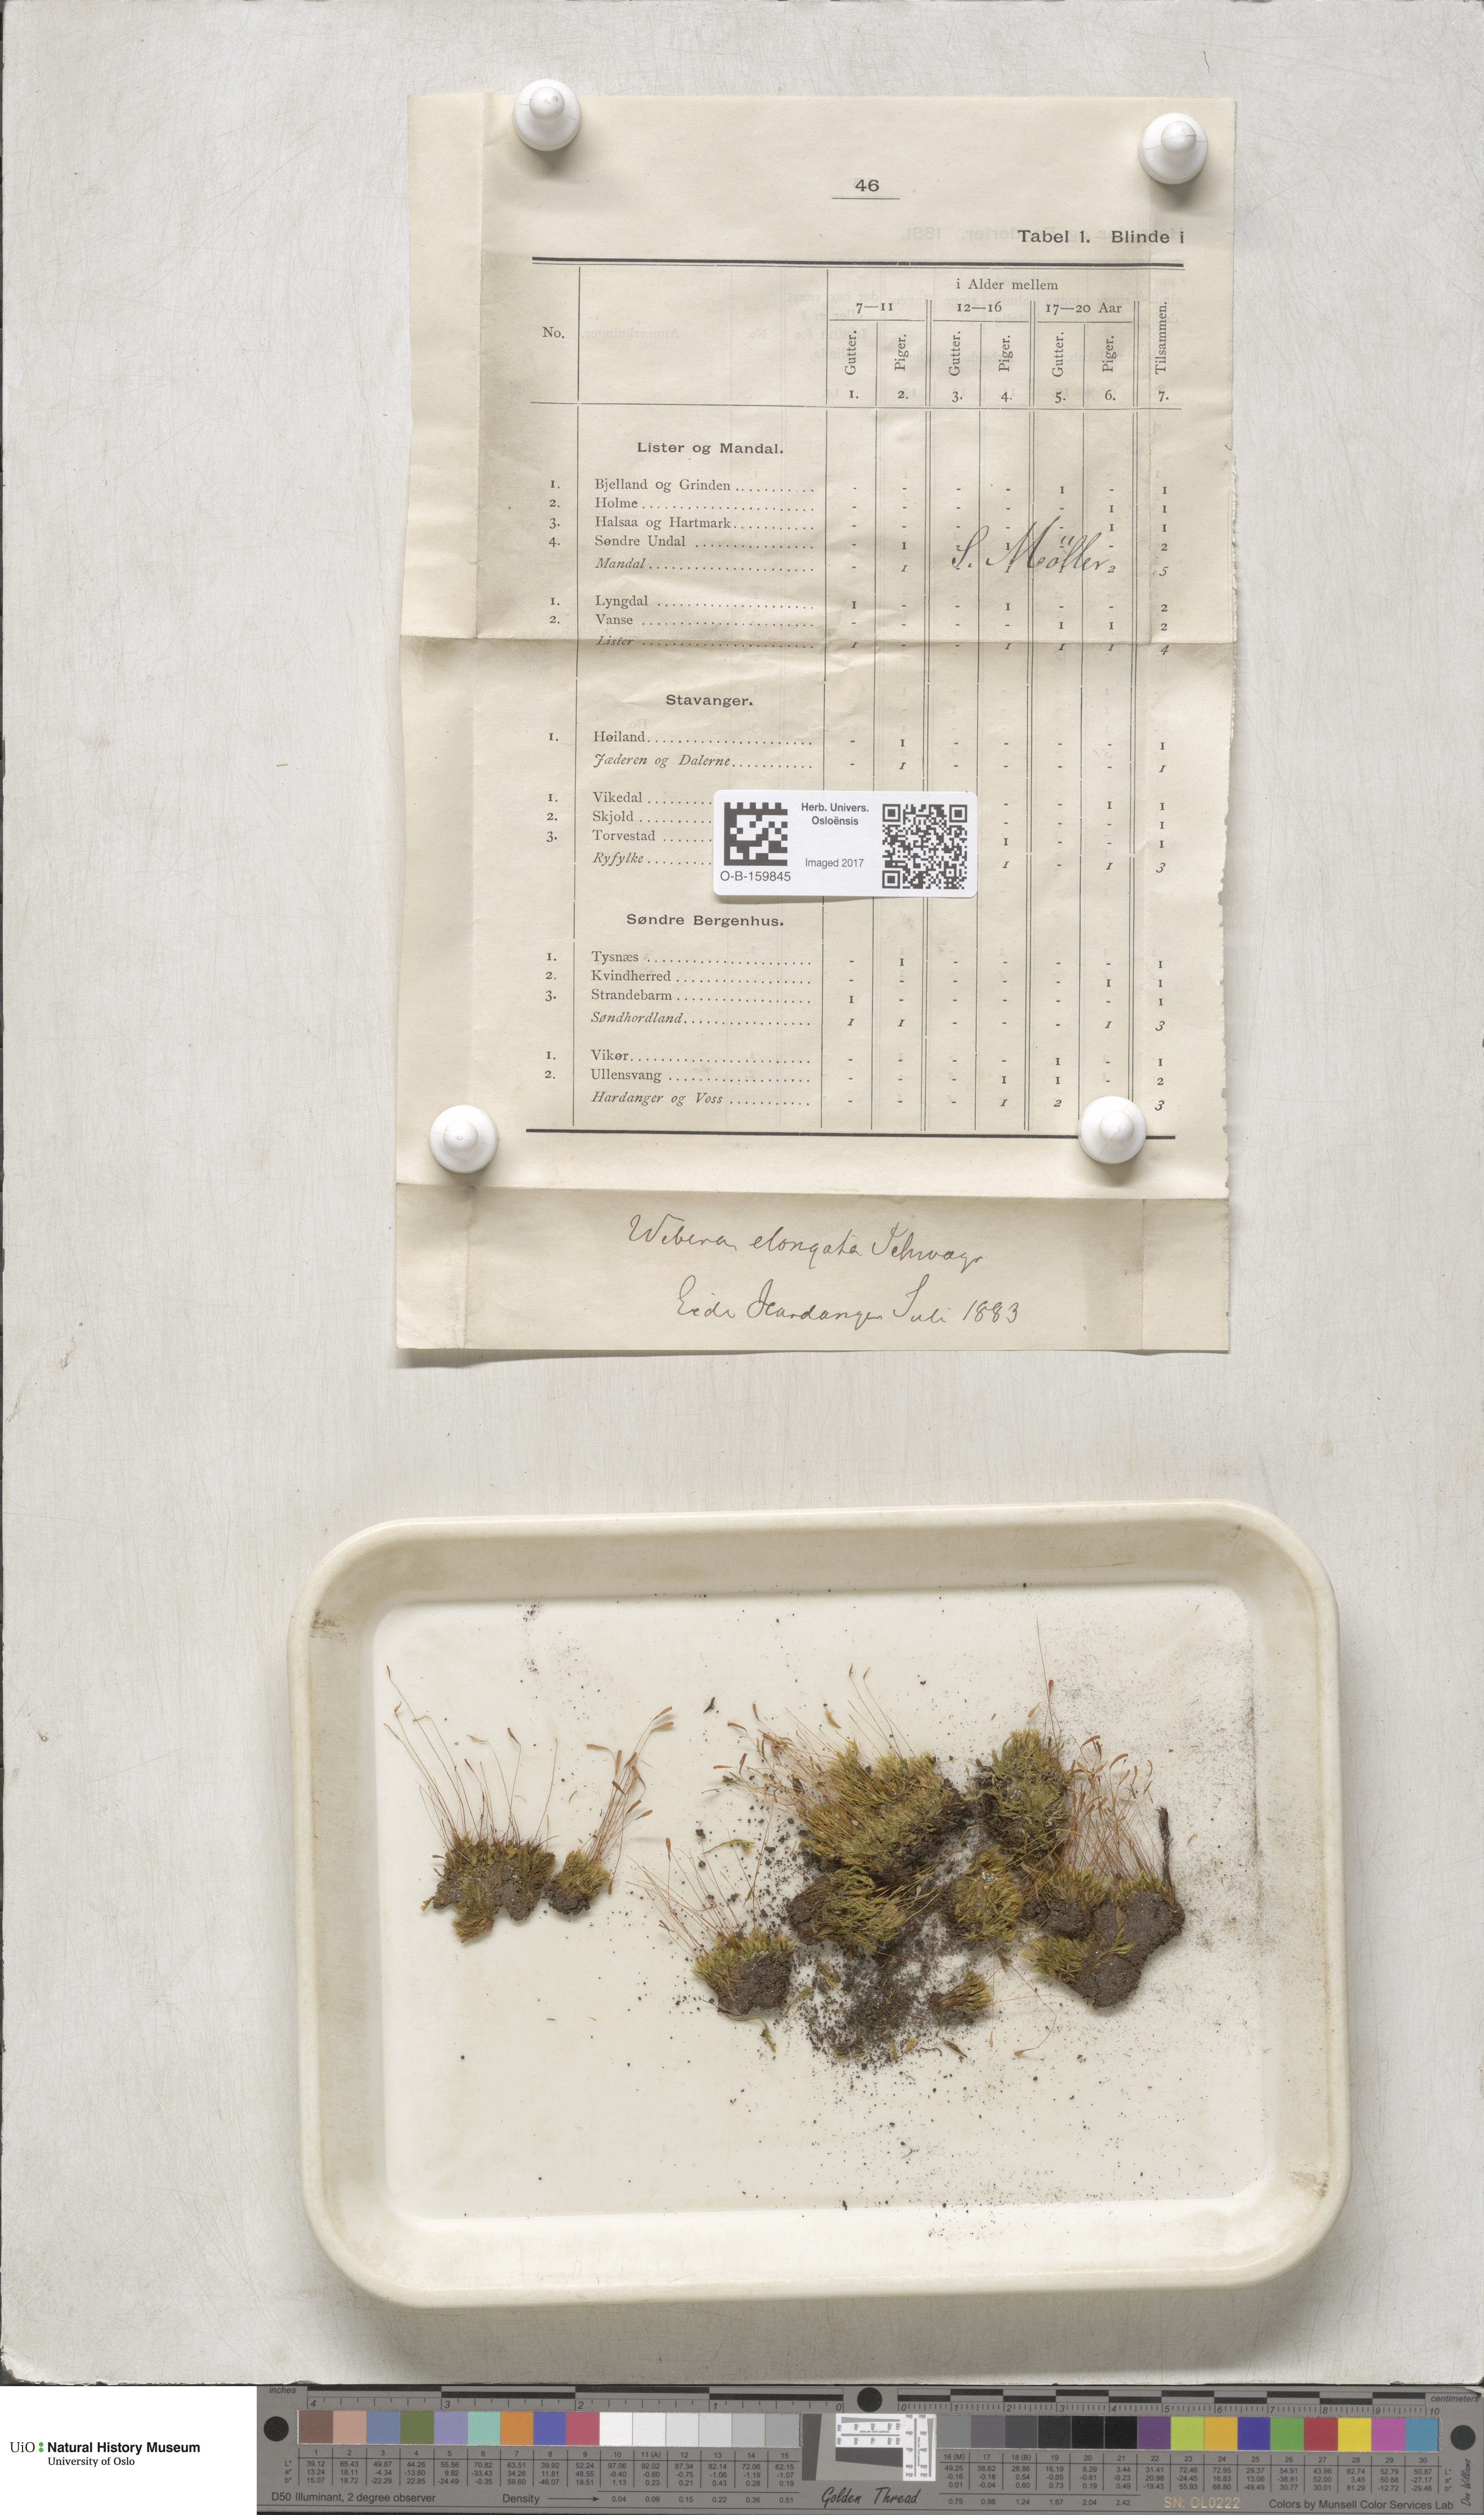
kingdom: Plantae
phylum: Bryophyta
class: Bryopsida
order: Bryales
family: Mniaceae
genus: Pohlia
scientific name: Pohlia elongata
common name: Long-fruited thread-moss
